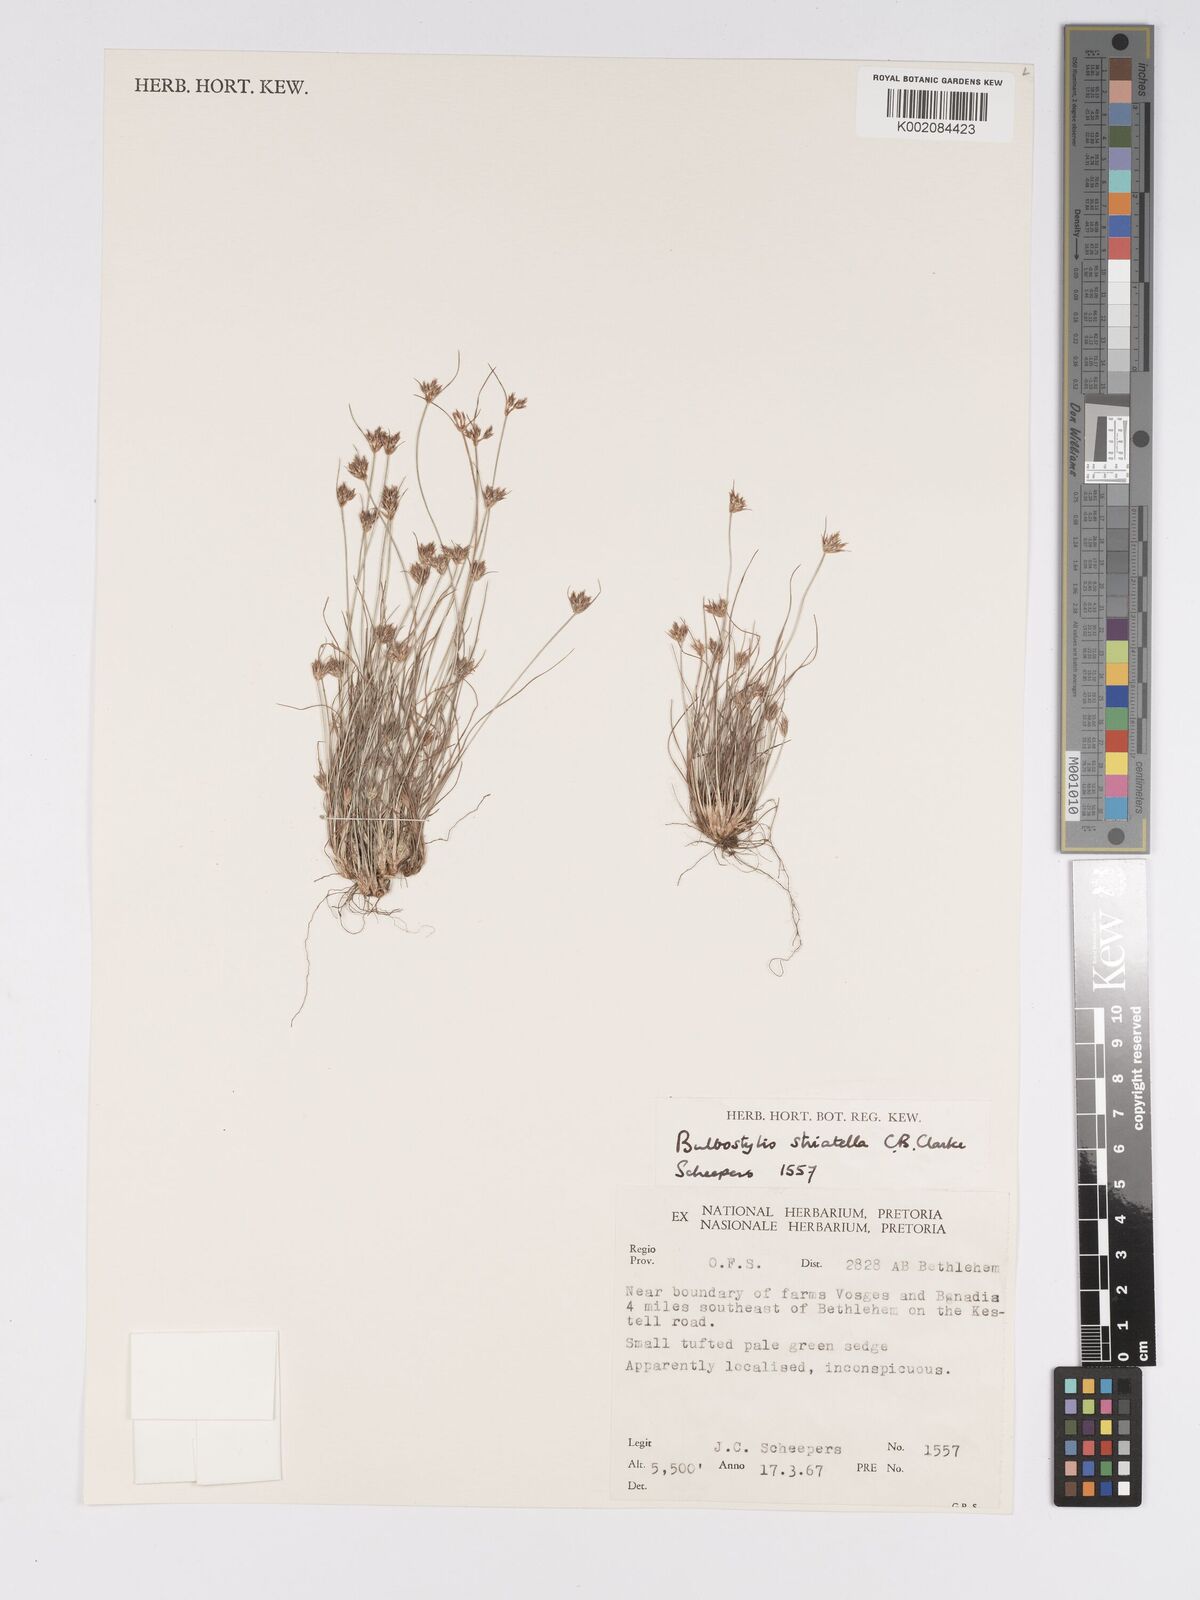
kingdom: Plantae
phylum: Tracheophyta
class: Liliopsida
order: Poales
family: Cyperaceae
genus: Bulbostylis
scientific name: Bulbostylis humilis
